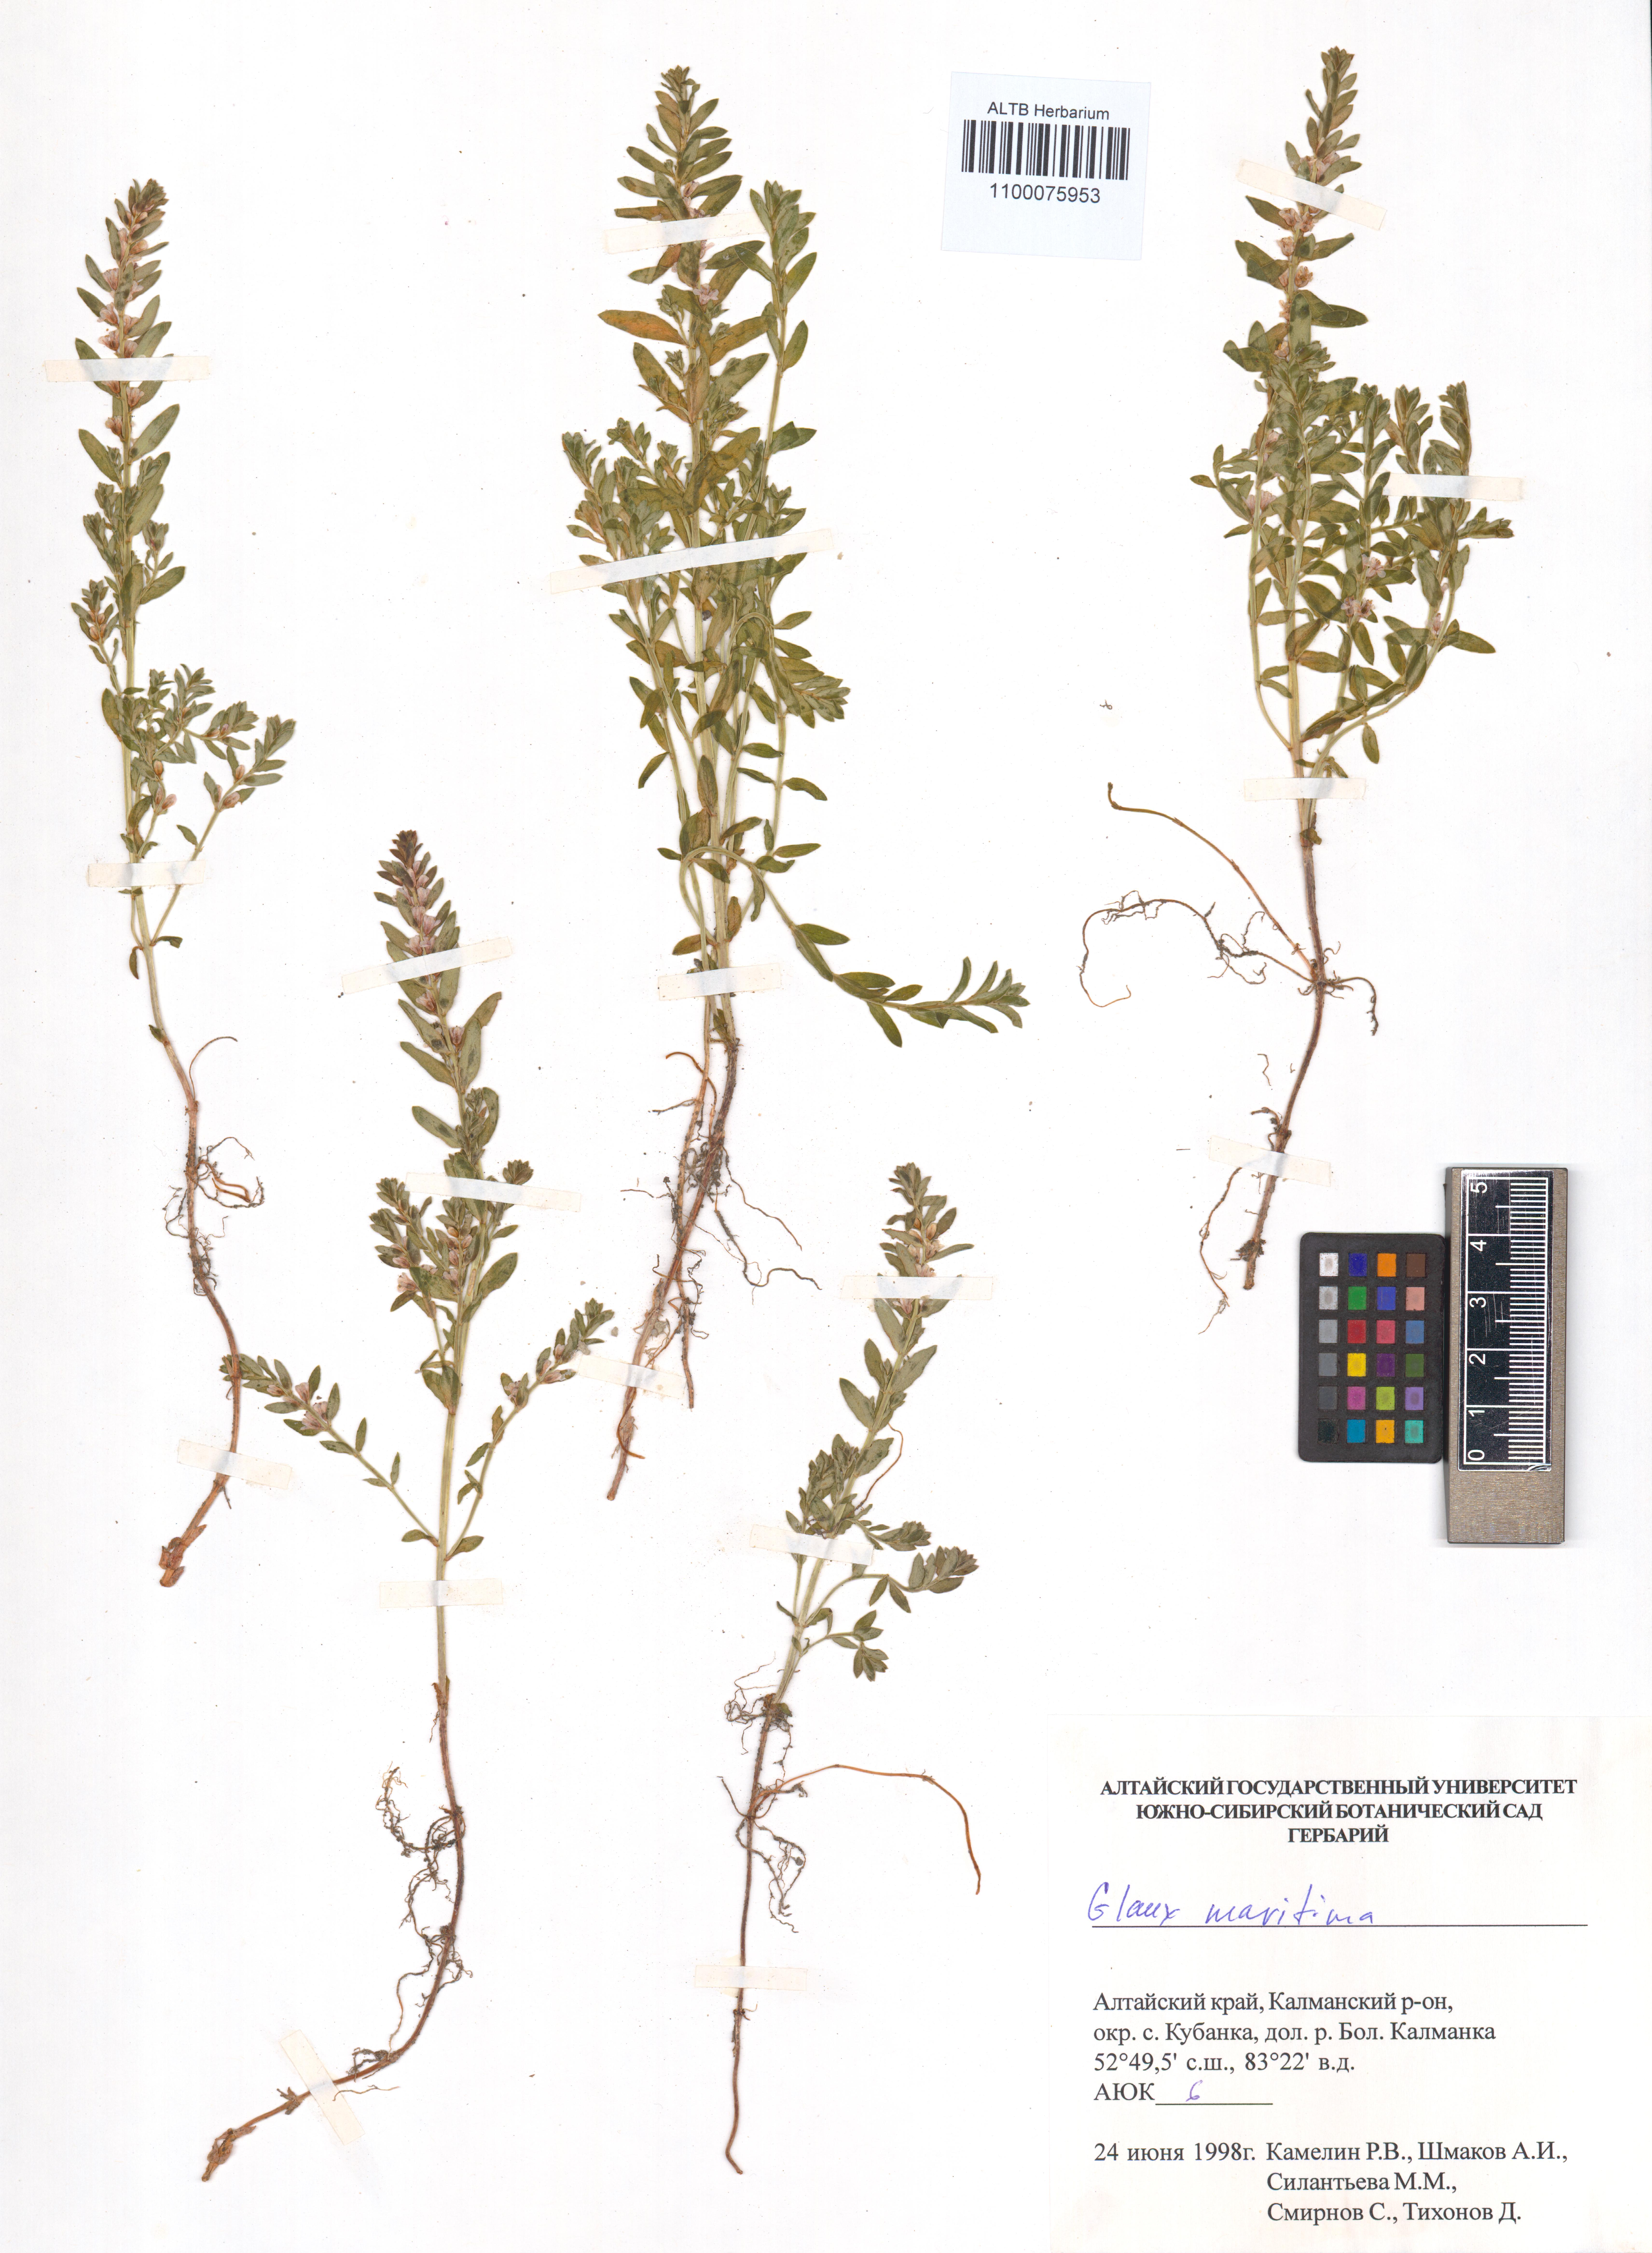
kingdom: Plantae
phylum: Tracheophyta
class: Magnoliopsida
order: Ericales
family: Primulaceae
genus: Lysimachia
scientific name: Lysimachia maritima
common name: Sea milkwort
